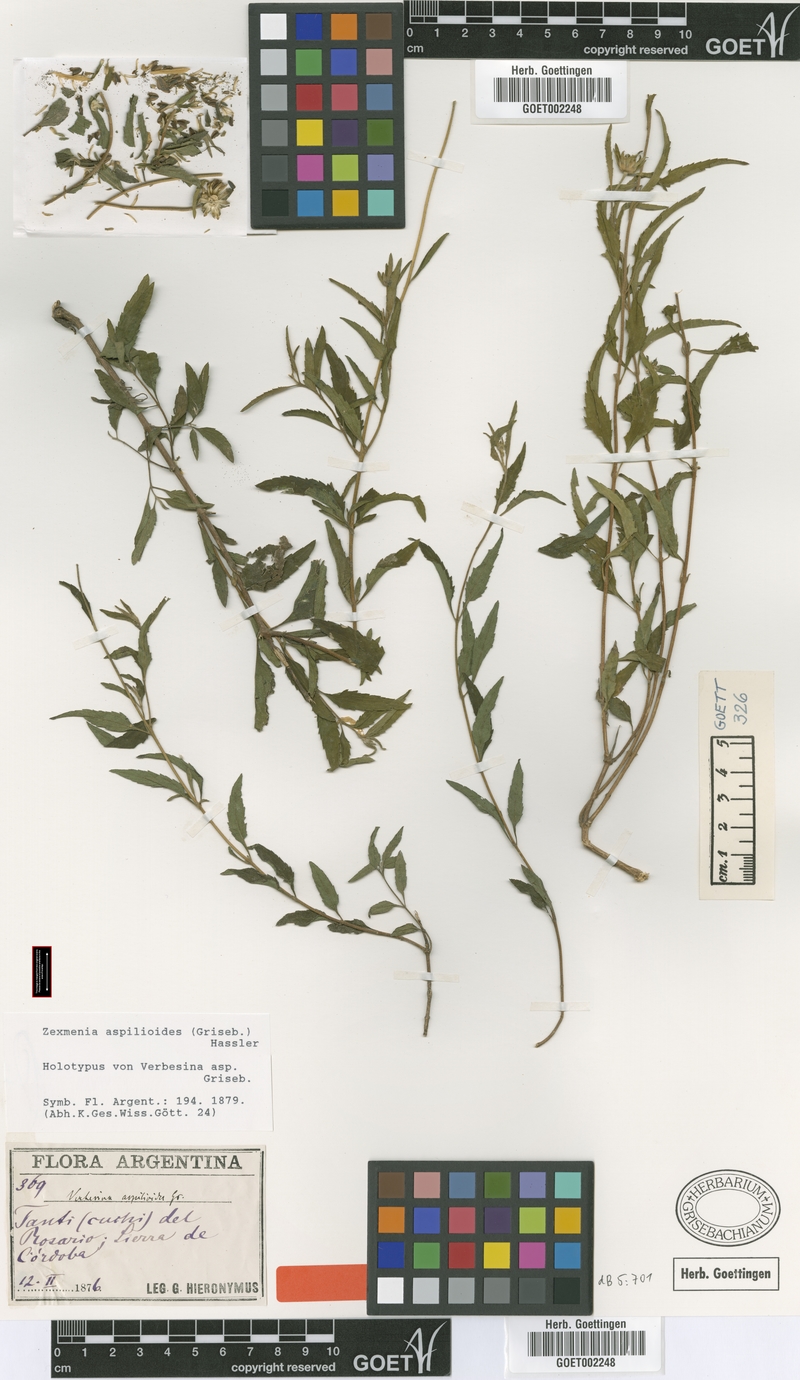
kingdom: Plantae
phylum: Tracheophyta
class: Magnoliopsida
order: Asterales
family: Asteraceae
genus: Dimerostemma
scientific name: Dimerostemma aspilioides
